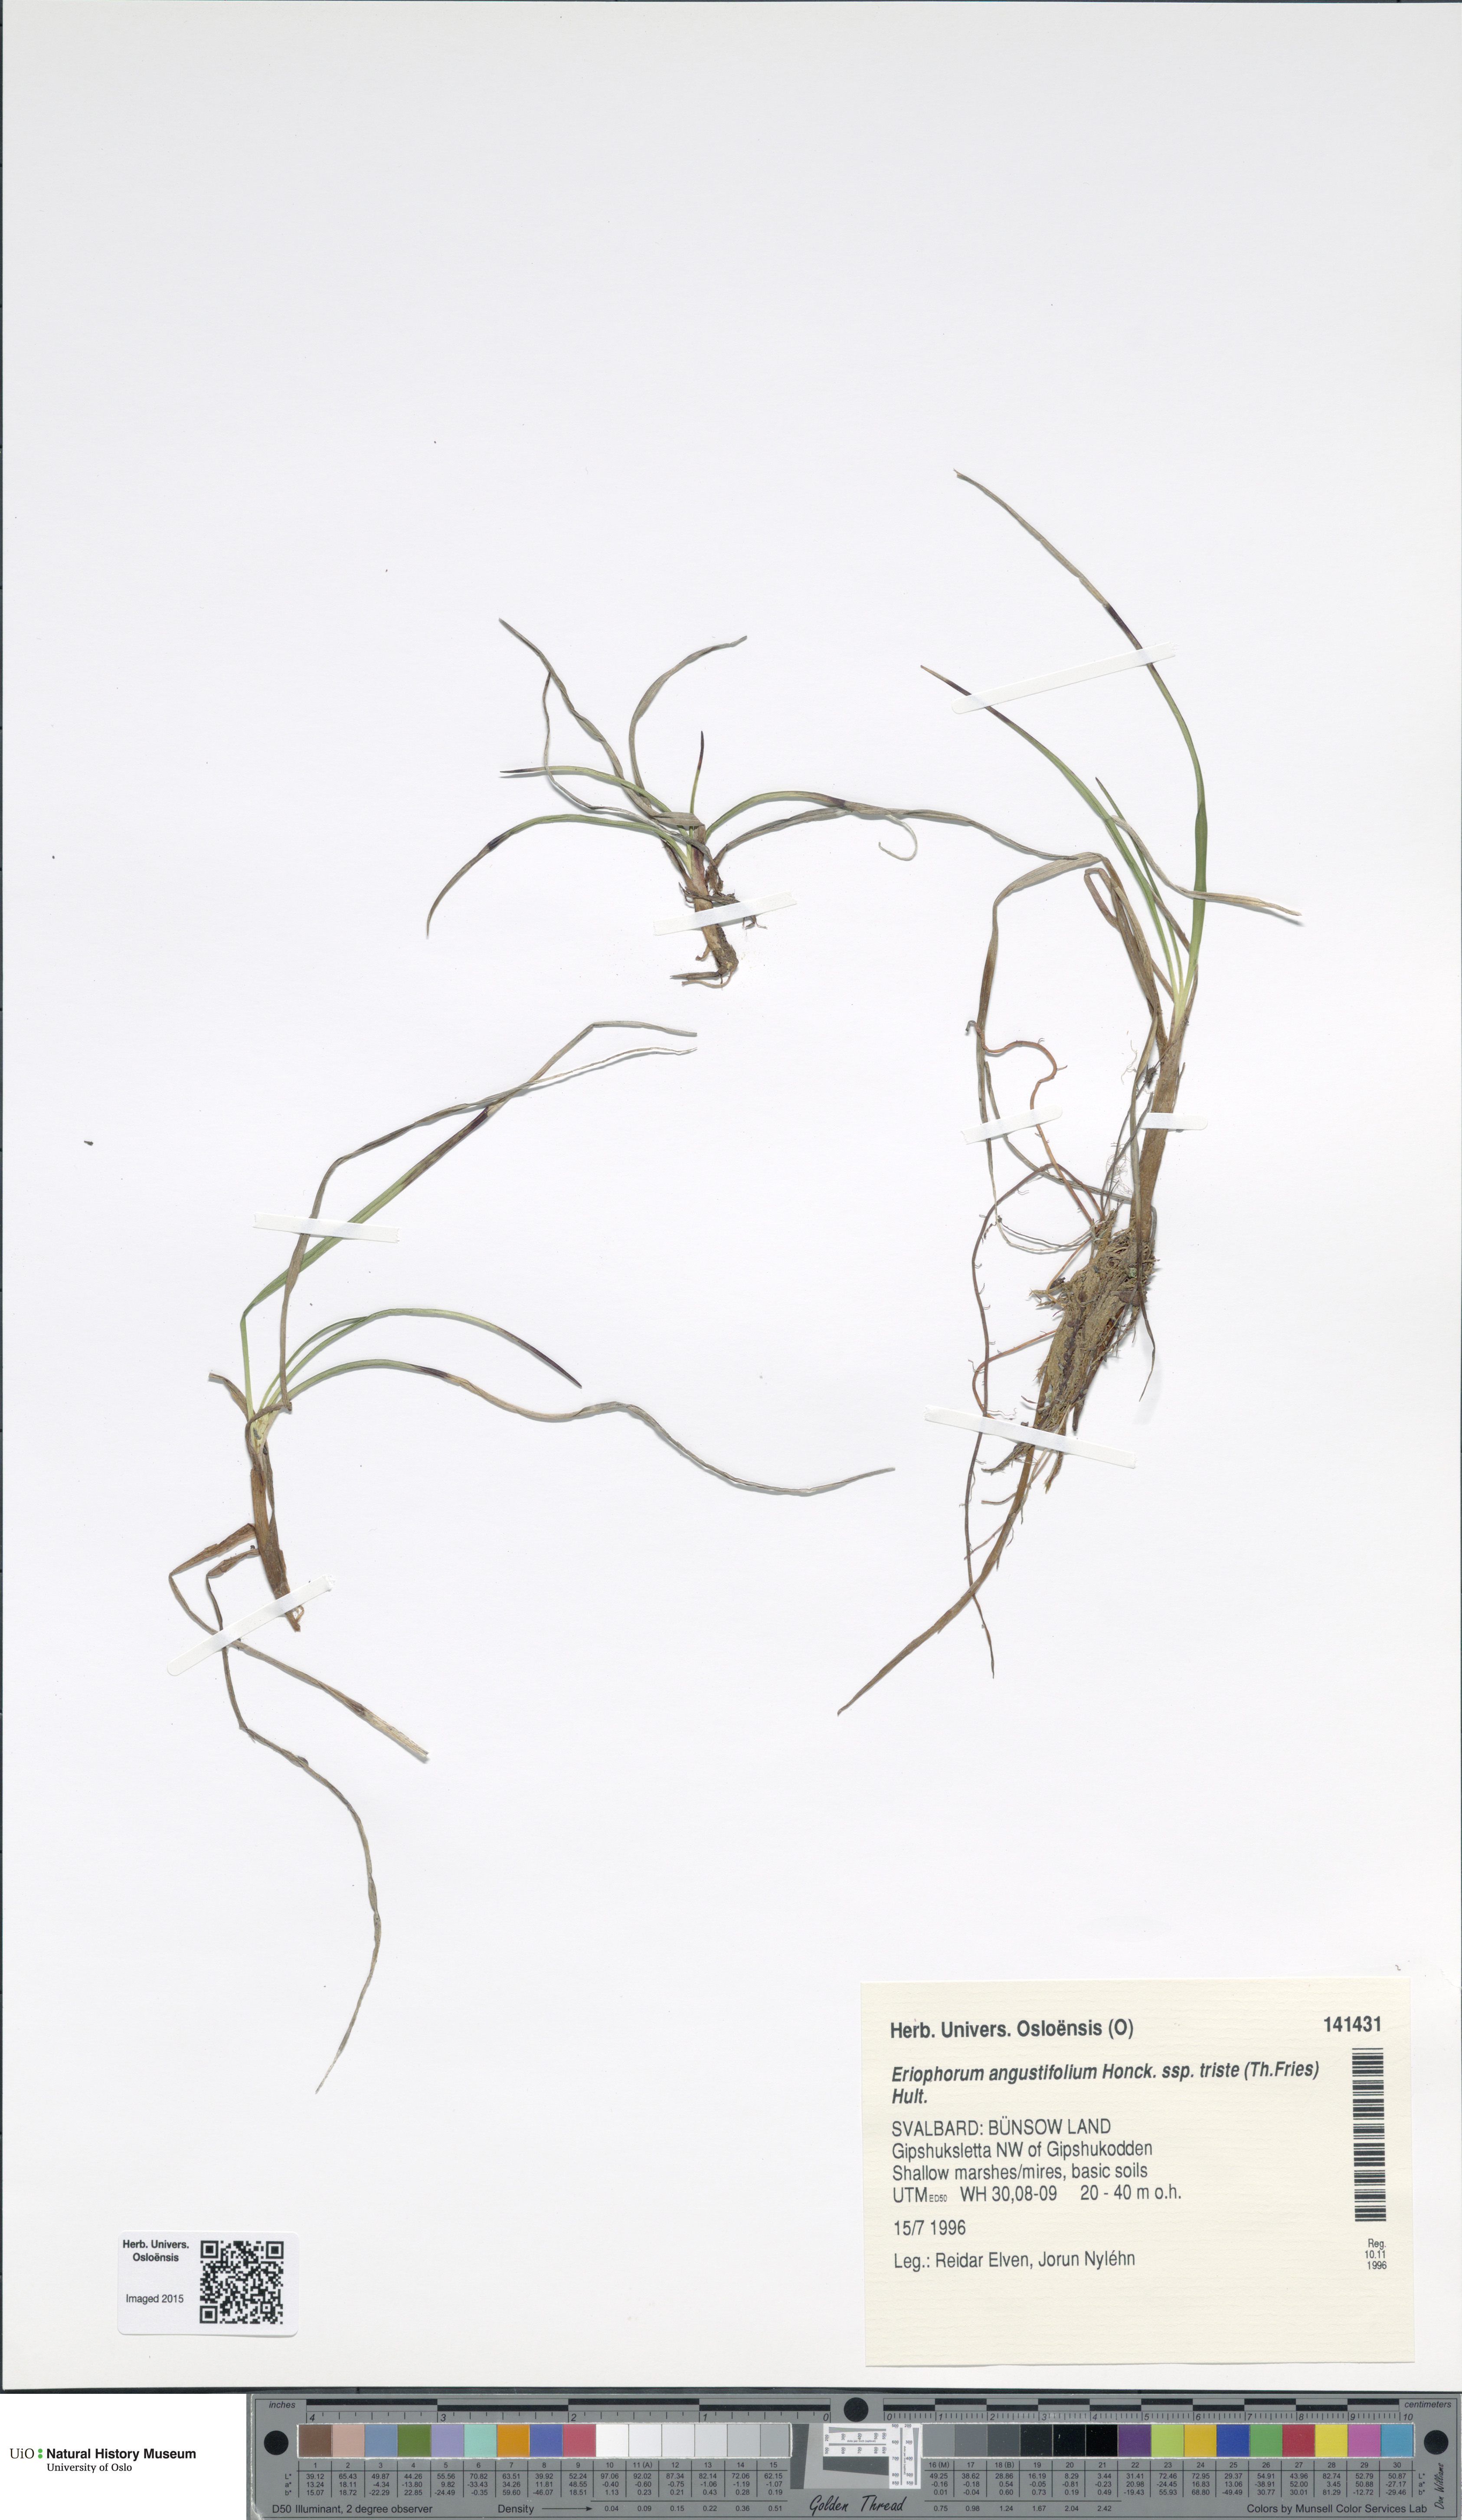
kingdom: Plantae
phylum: Tracheophyta
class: Liliopsida
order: Poales
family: Cyperaceae
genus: Eriophorum
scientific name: Eriophorum triste
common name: Tall cottongrass
